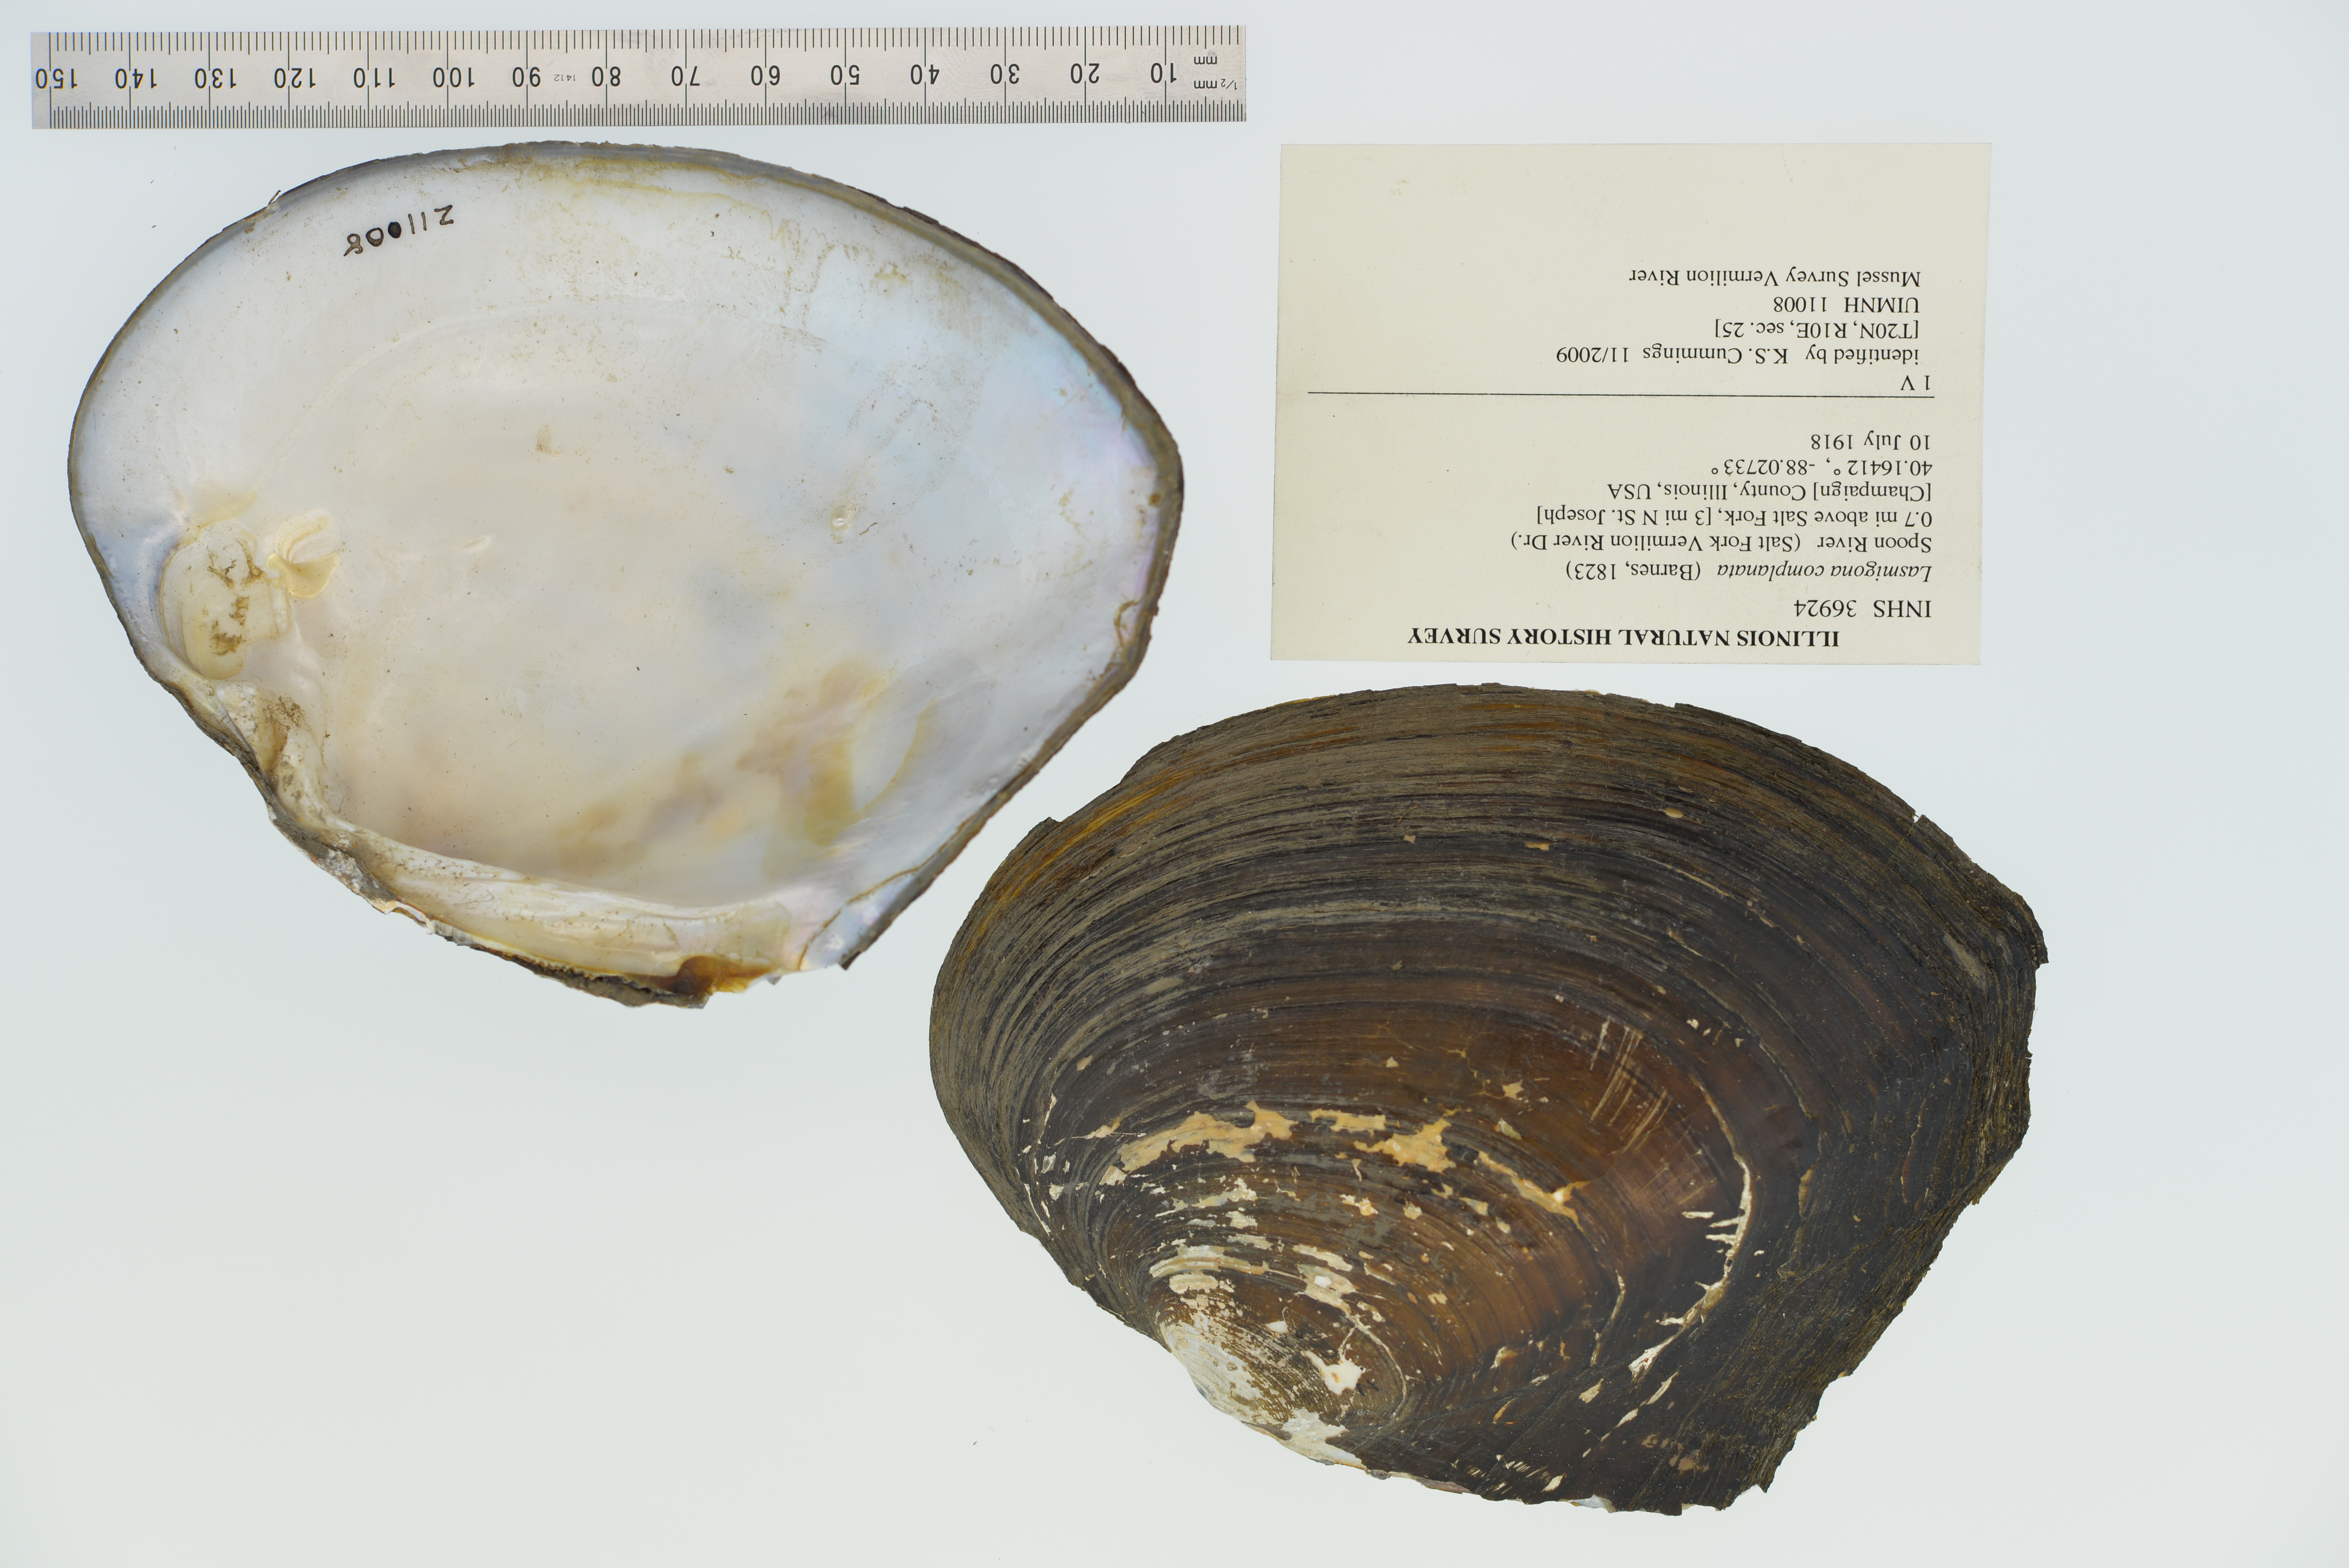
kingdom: Animalia
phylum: Mollusca
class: Bivalvia
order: Unionida
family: Unionidae
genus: Lasmigona
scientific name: Lasmigona complanata
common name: White heelsplitter
